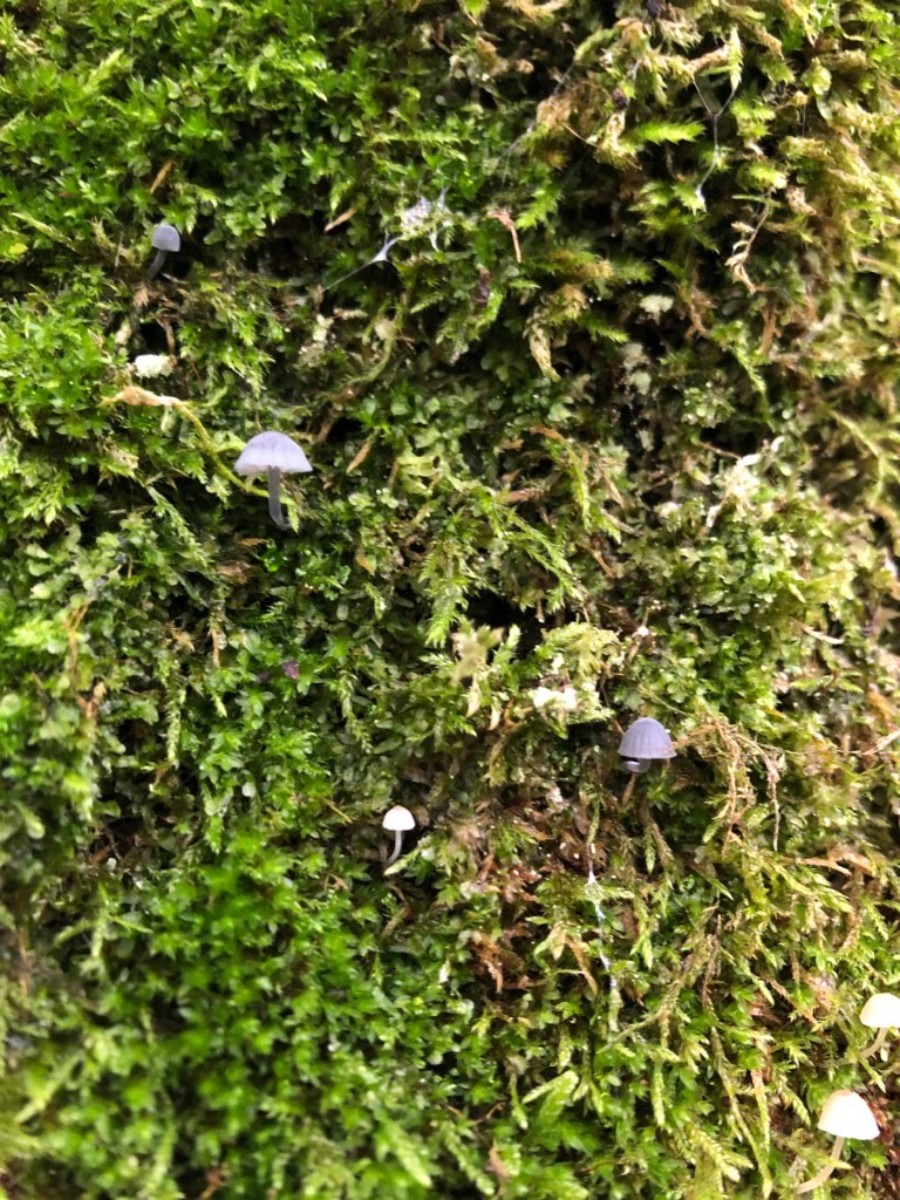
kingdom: Fungi
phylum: Basidiomycota
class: Agaricomycetes
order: Agaricales
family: Mycenaceae
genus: Mycena
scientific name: Mycena pseudocorticola
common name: gråblå bark-huesvamp
